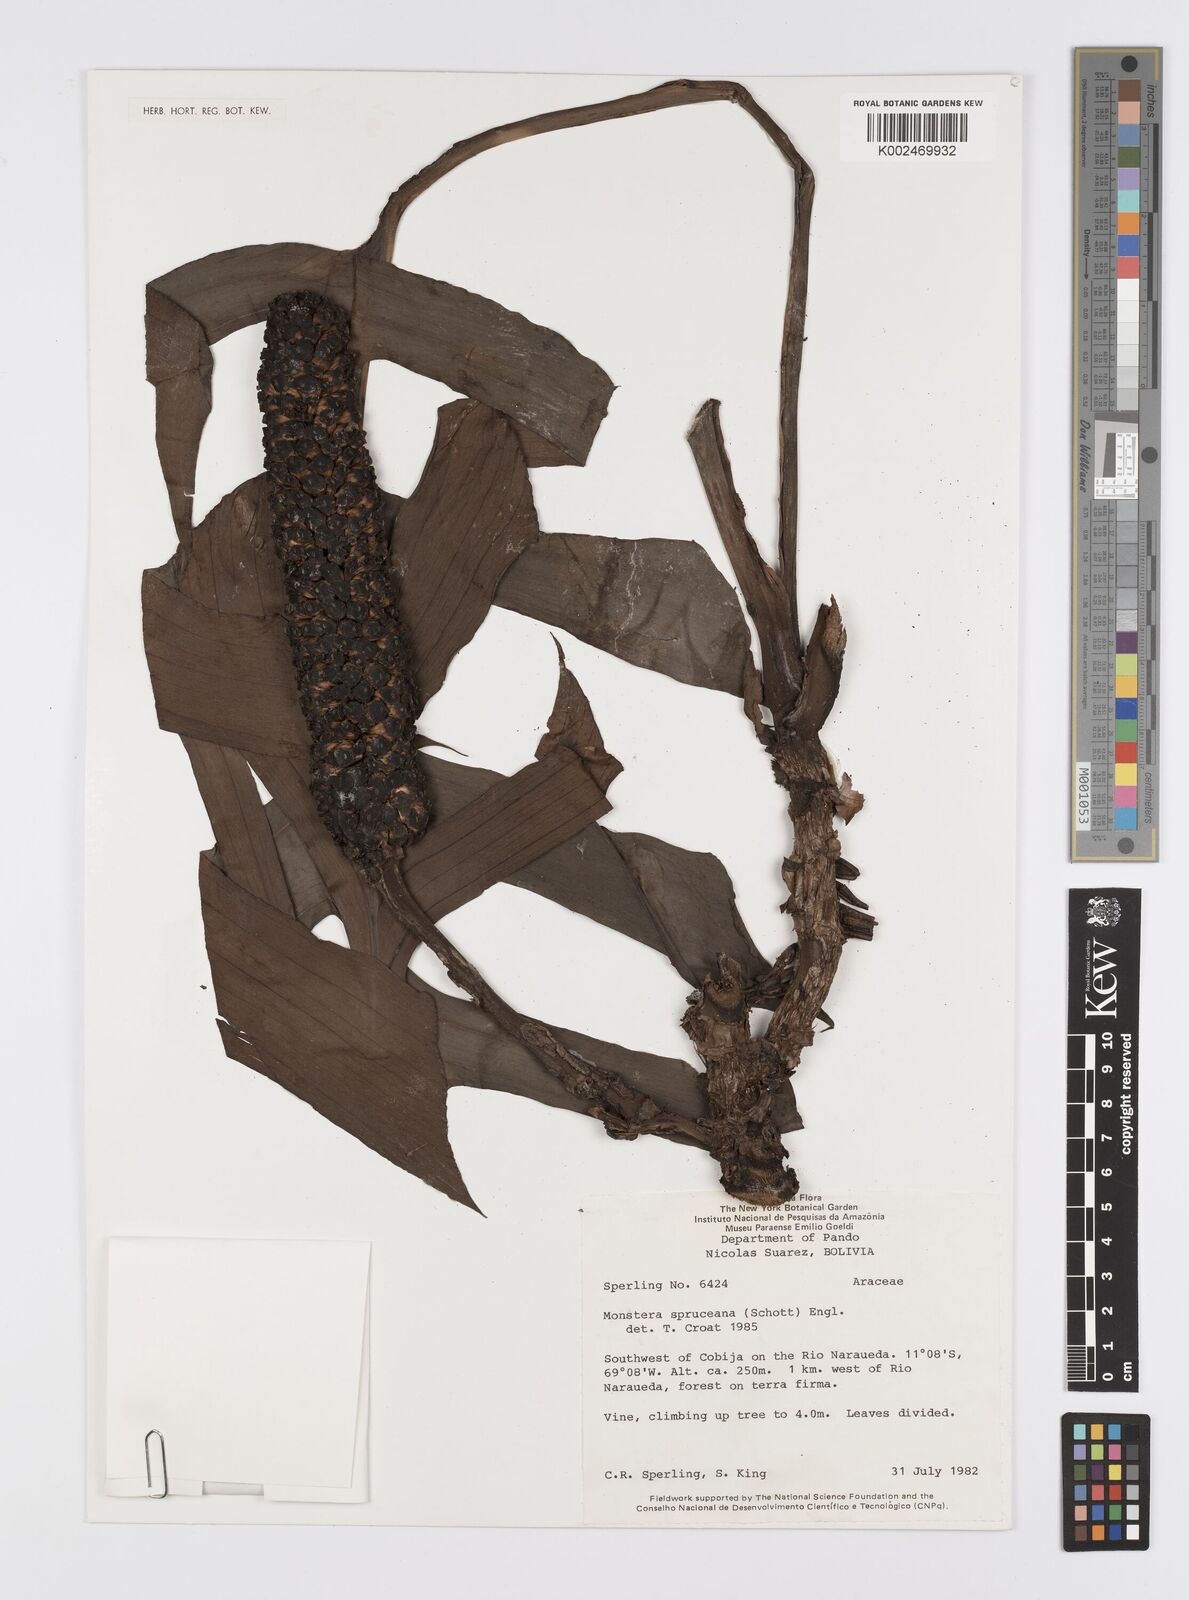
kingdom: Plantae
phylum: Tracheophyta
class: Liliopsida
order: Alismatales
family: Araceae
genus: Monstera
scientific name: Monstera spruceana
